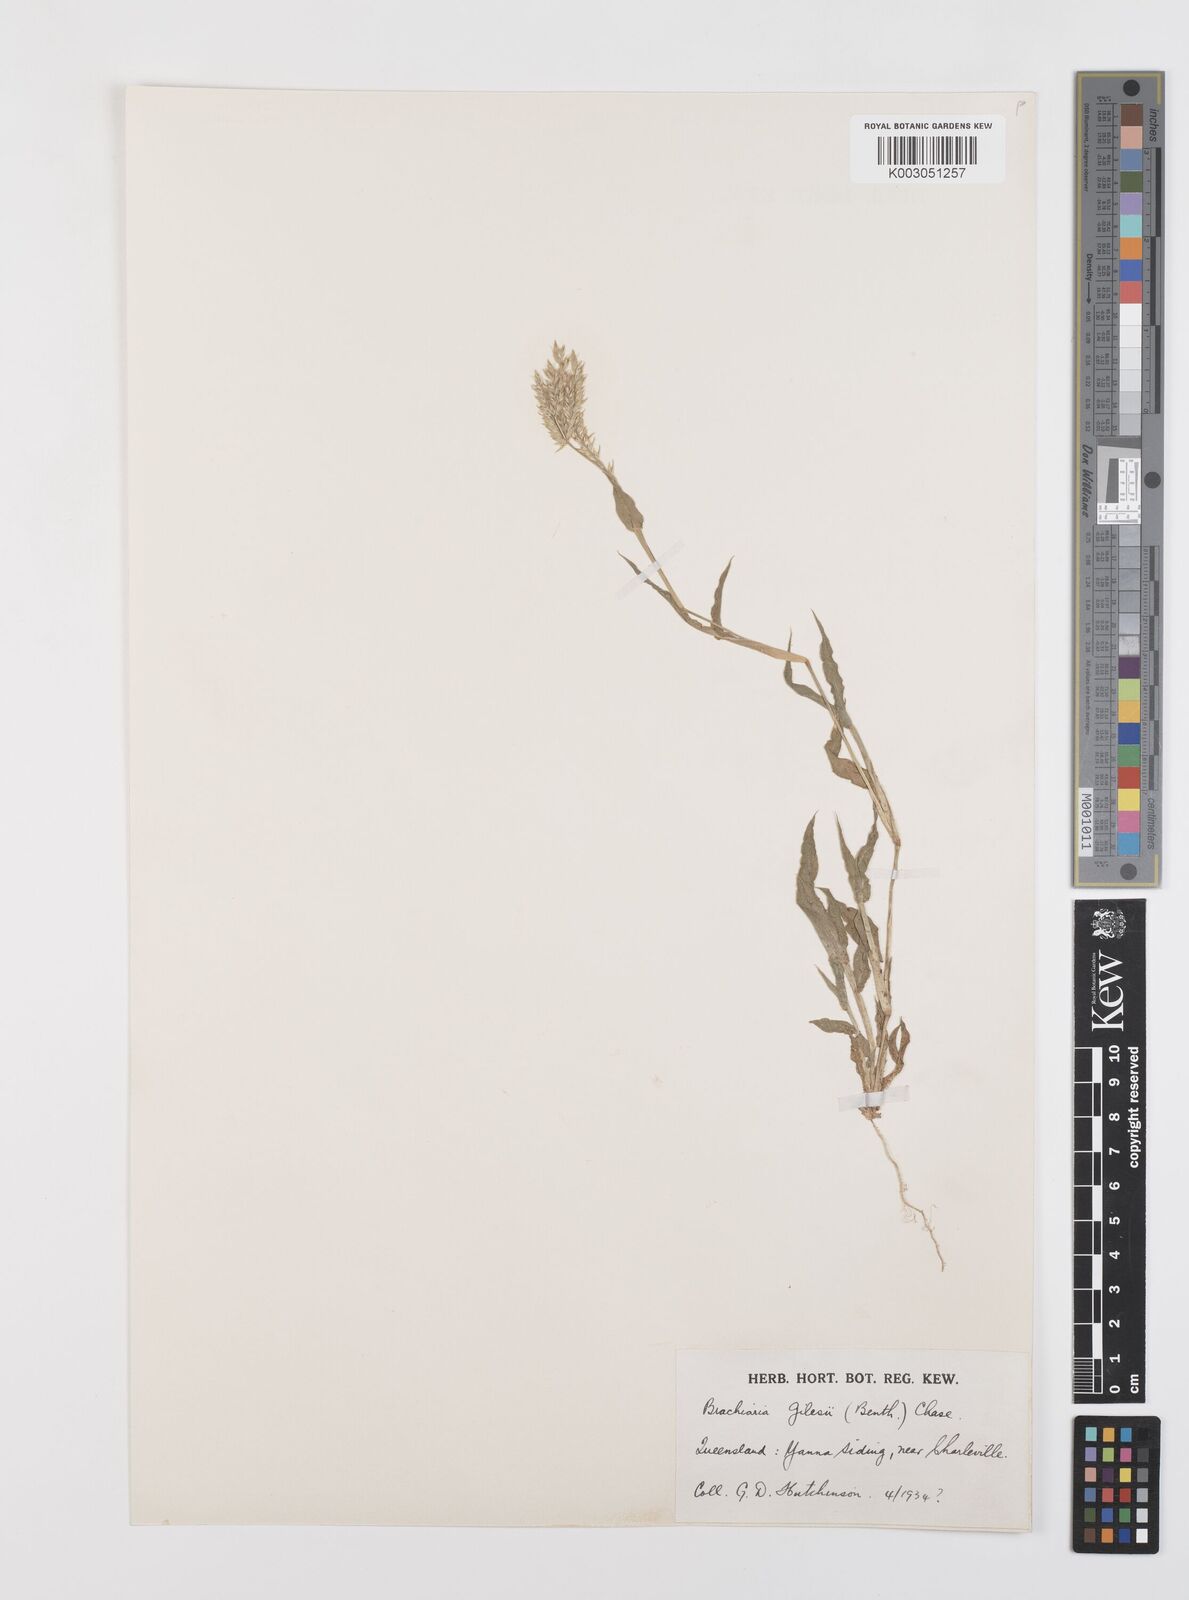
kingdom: Plantae
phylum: Tracheophyta
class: Liliopsida
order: Poales
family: Poaceae
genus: Urochloa
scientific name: Urochloa gilesii
